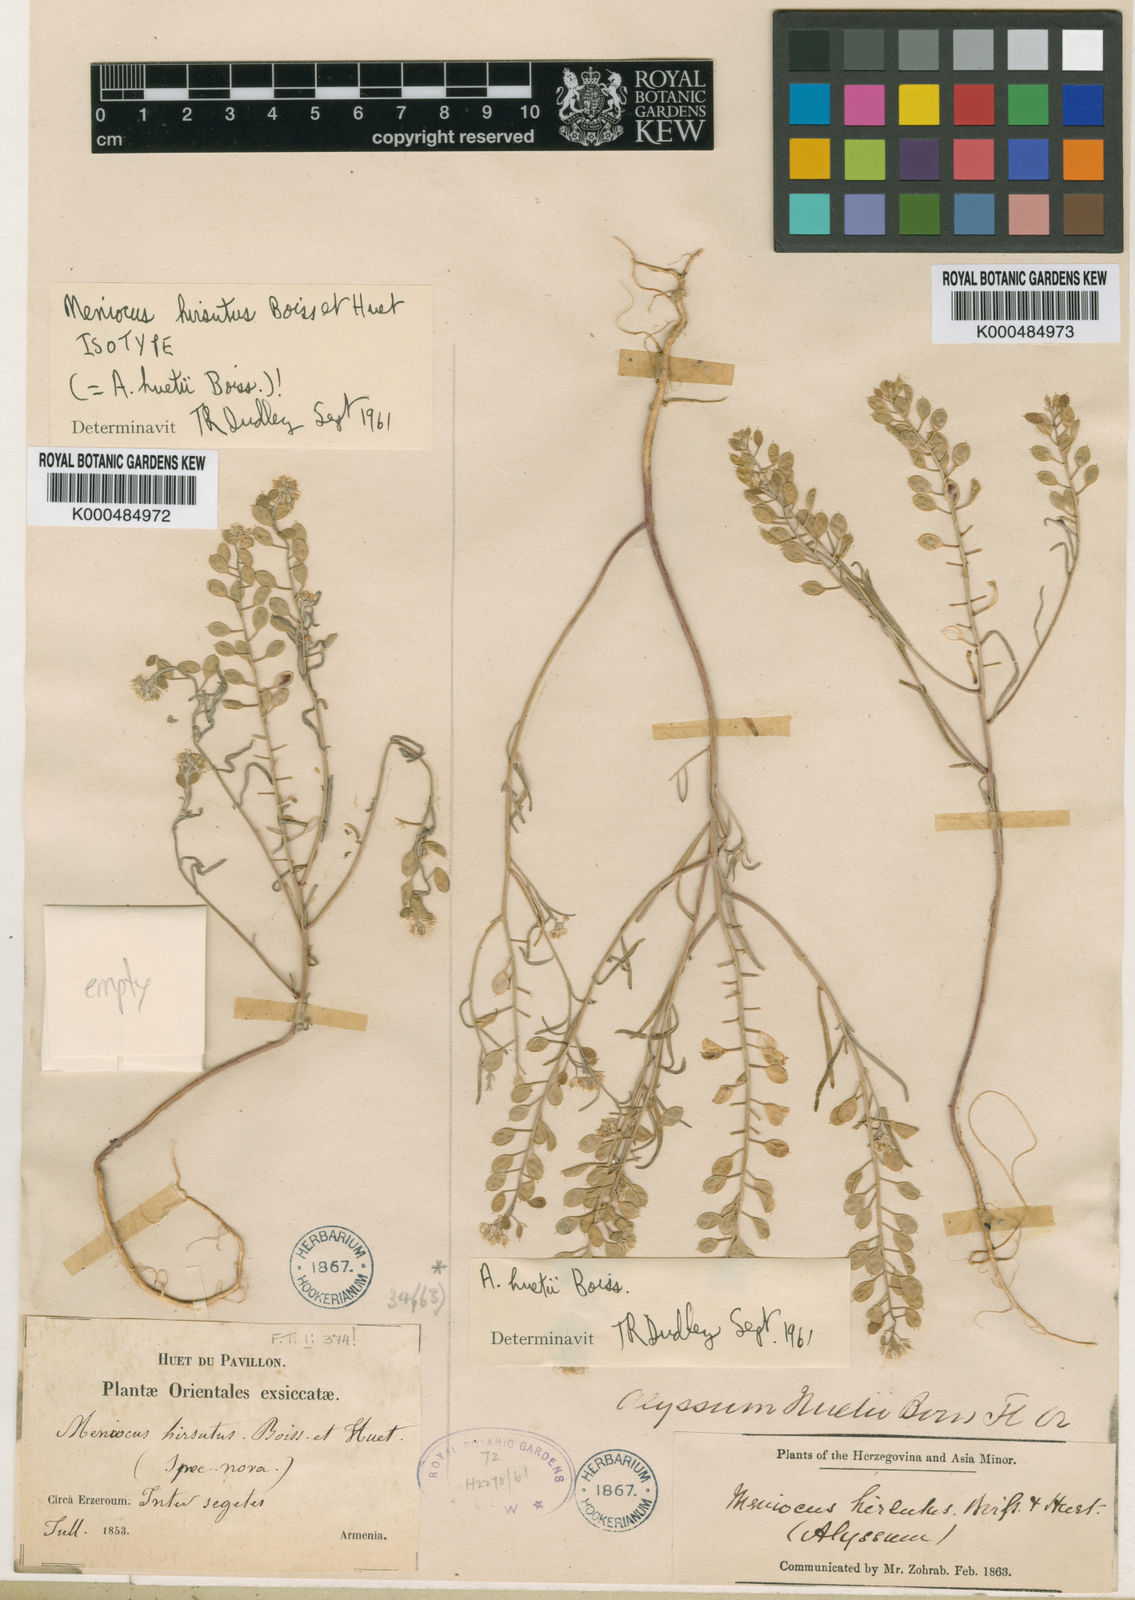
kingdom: Plantae
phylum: Tracheophyta
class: Magnoliopsida
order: Brassicales
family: Brassicaceae
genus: Meniocus
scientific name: Meniocus hirsutus
